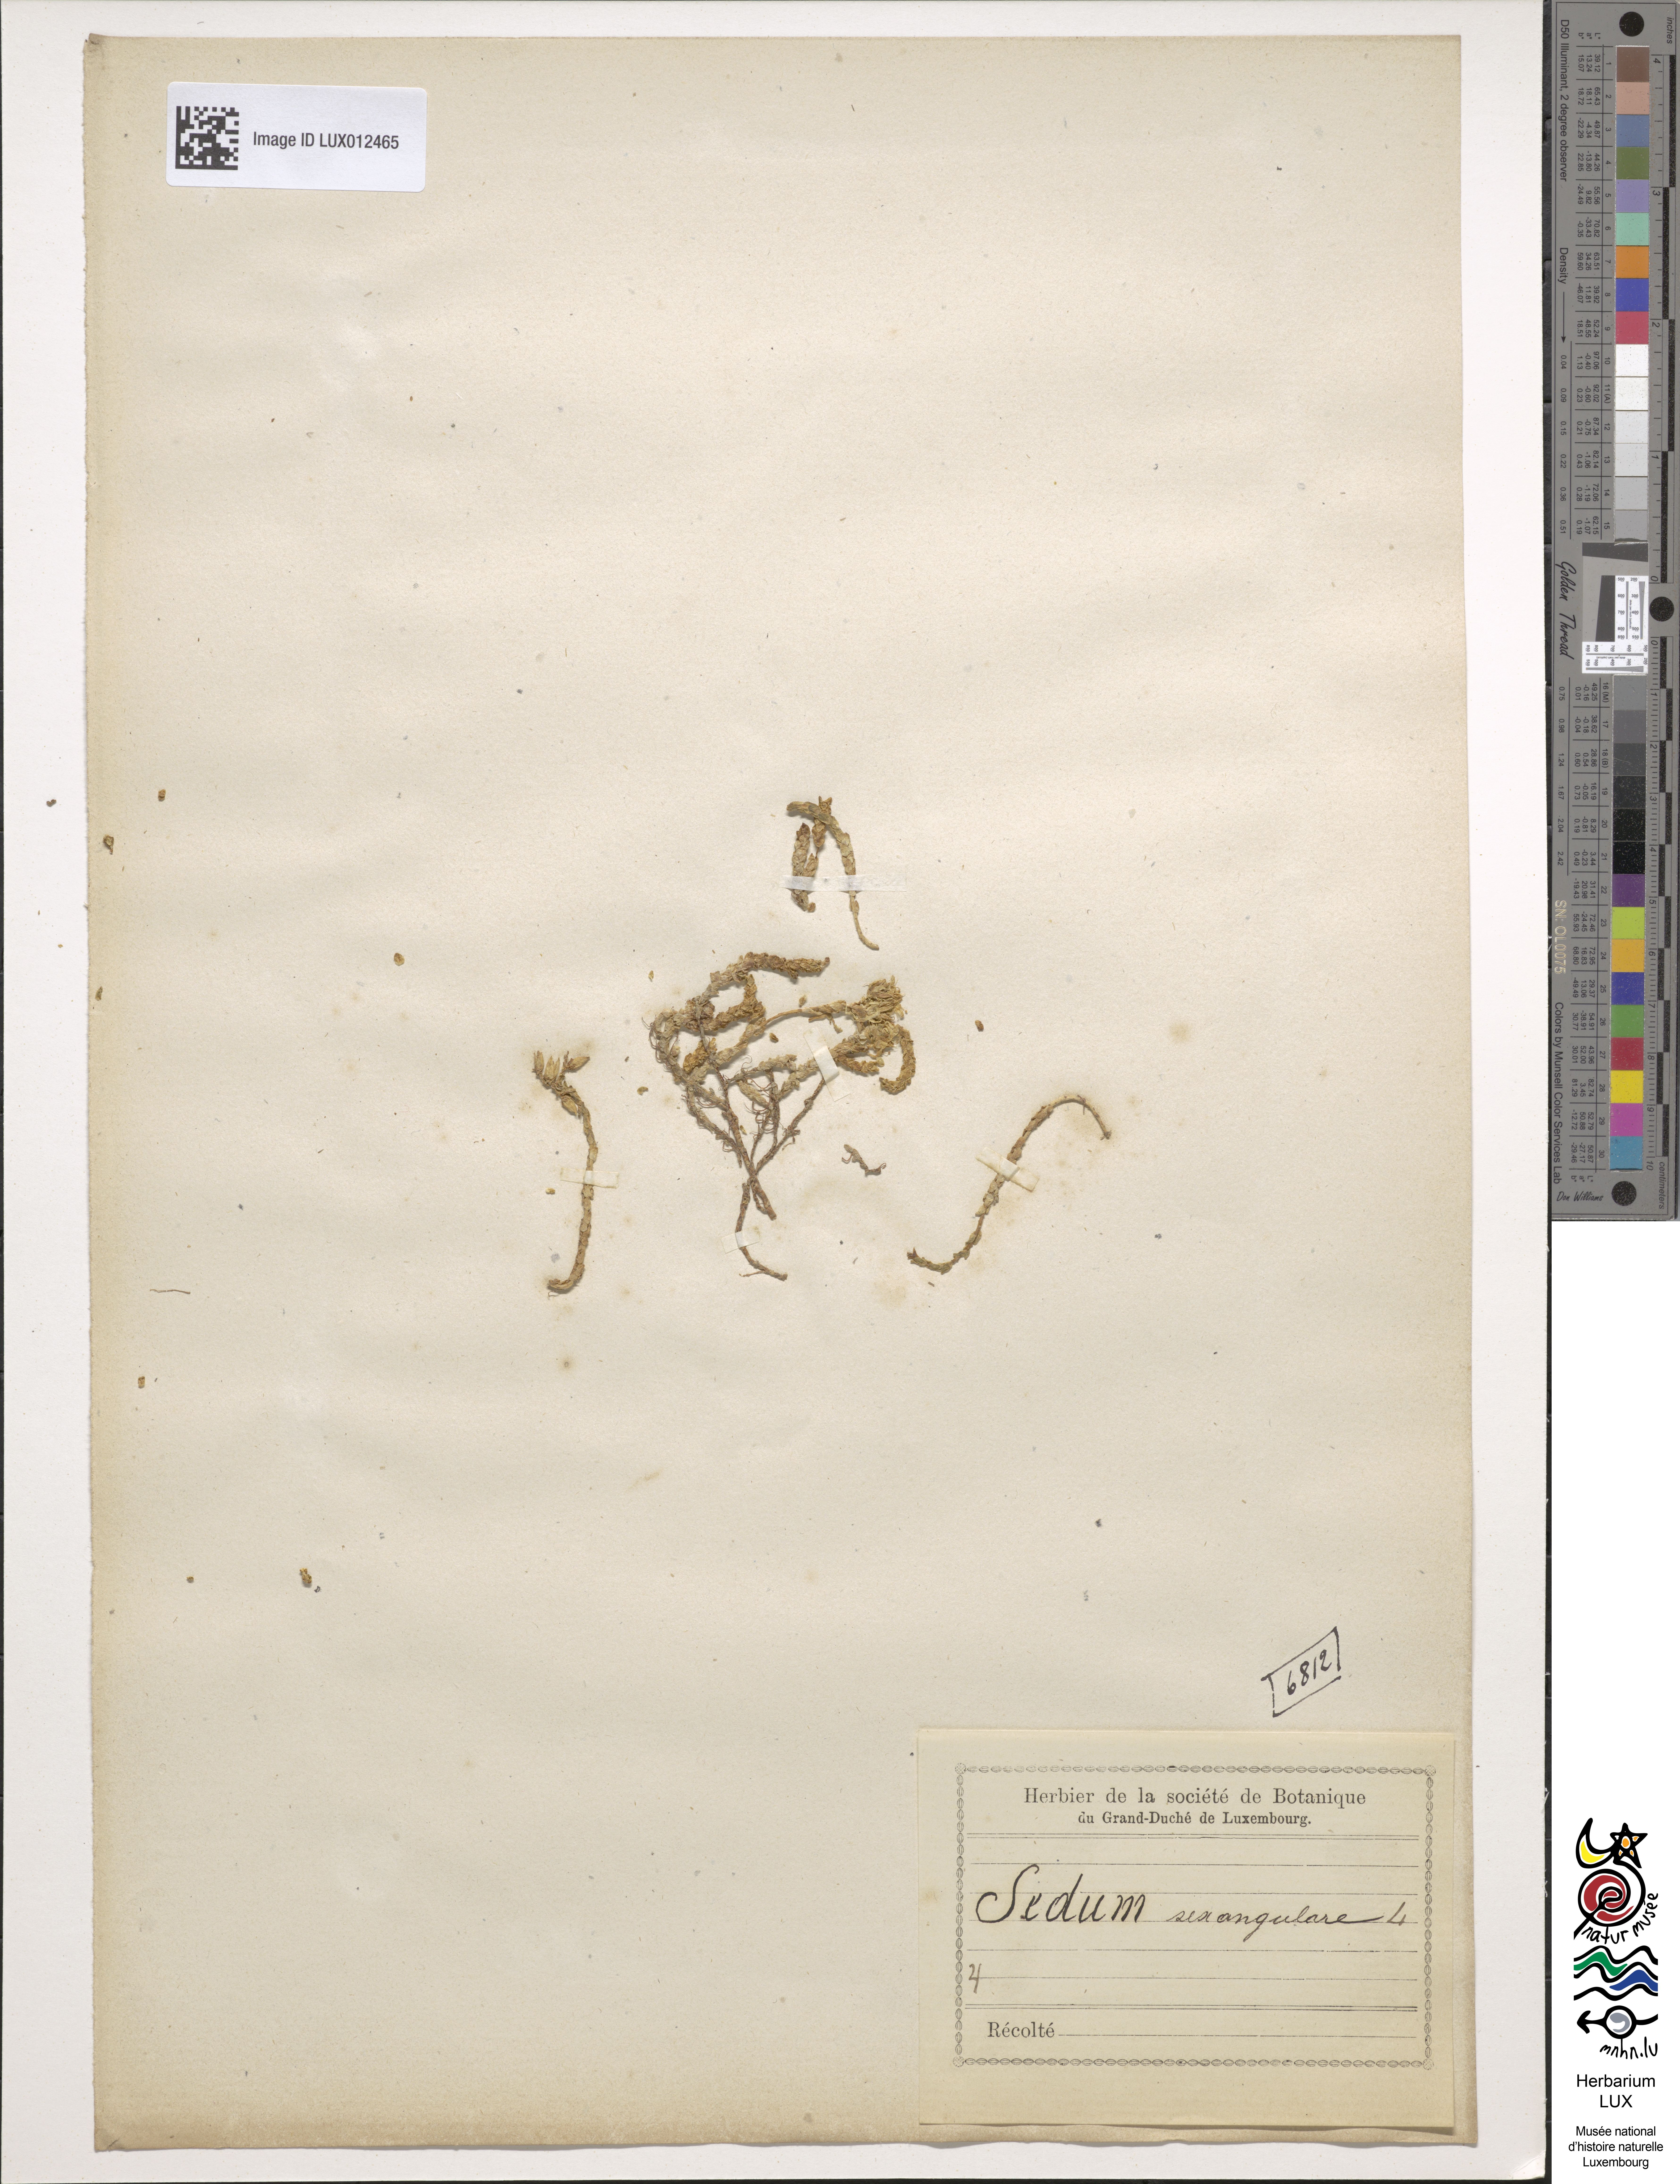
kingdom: Plantae
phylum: Tracheophyta
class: Magnoliopsida
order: Saxifragales
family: Crassulaceae
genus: Sedum
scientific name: Sedum sexangulare
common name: Tasteless stonecrop
